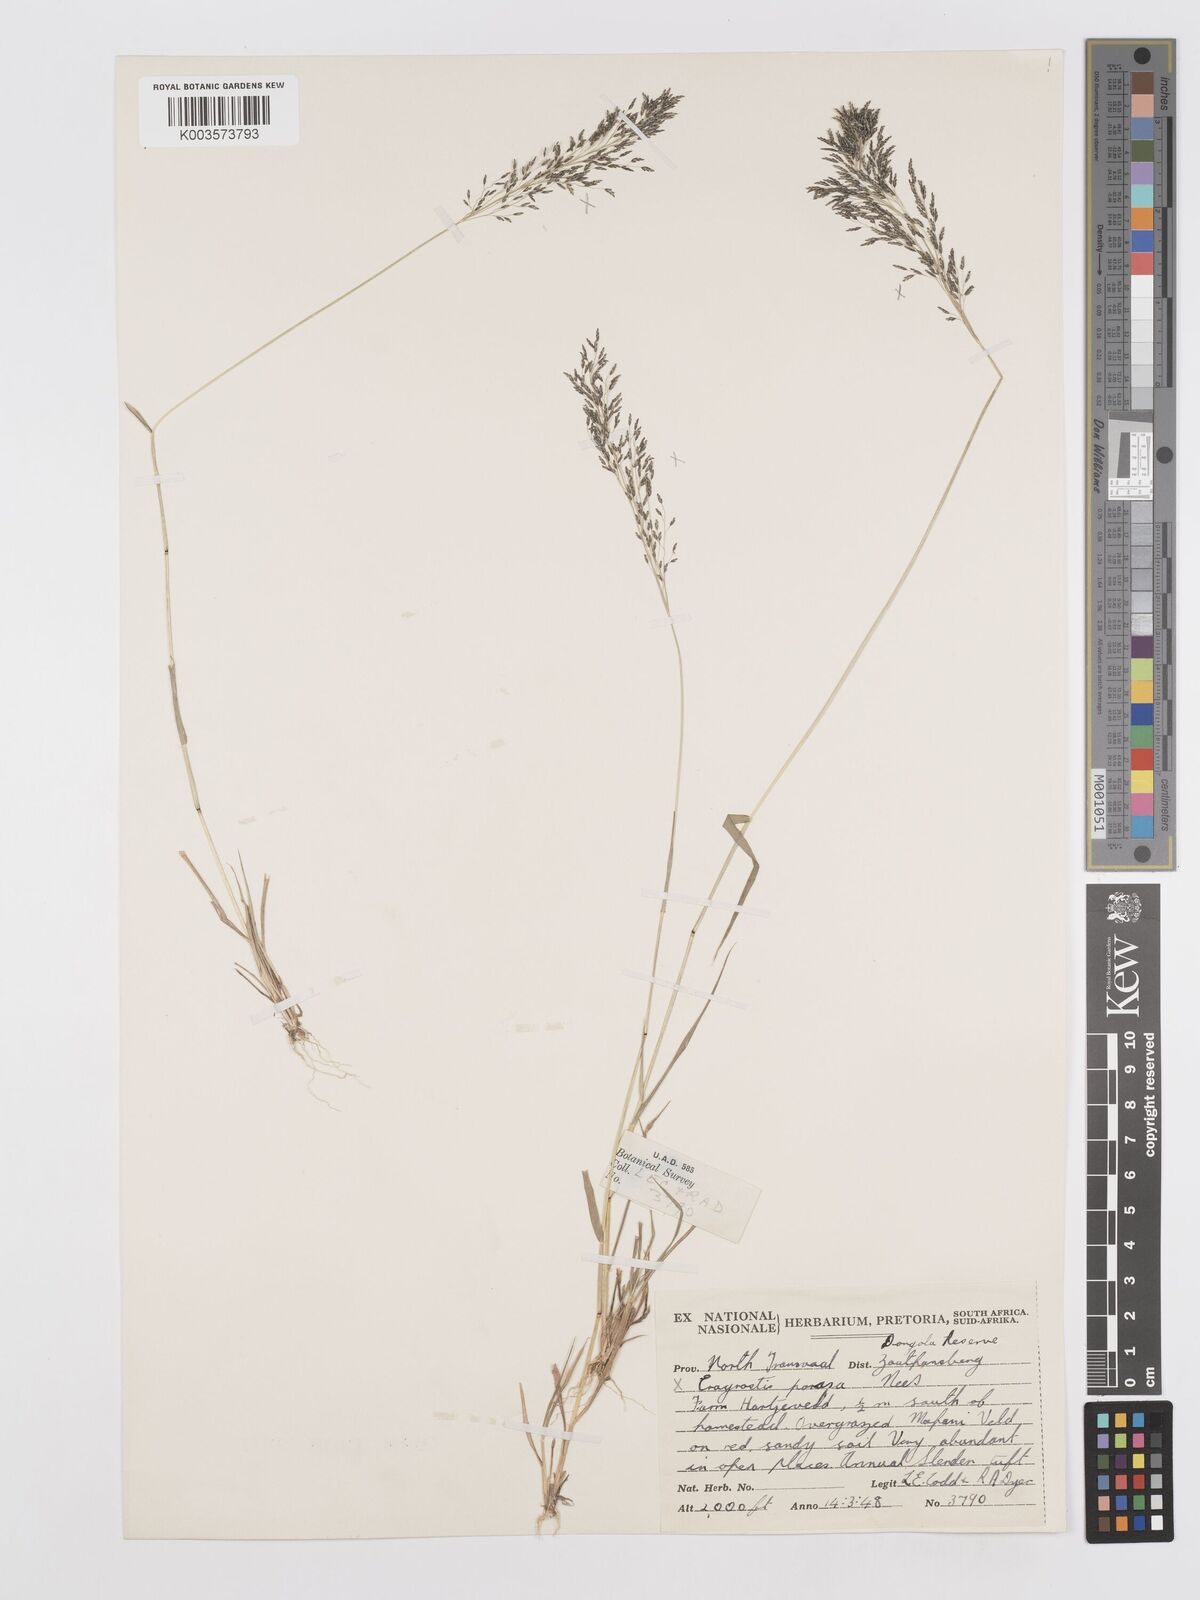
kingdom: Plantae
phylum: Tracheophyta
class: Liliopsida
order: Poales
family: Poaceae
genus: Eragrostis
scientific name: Eragrostis porosa
